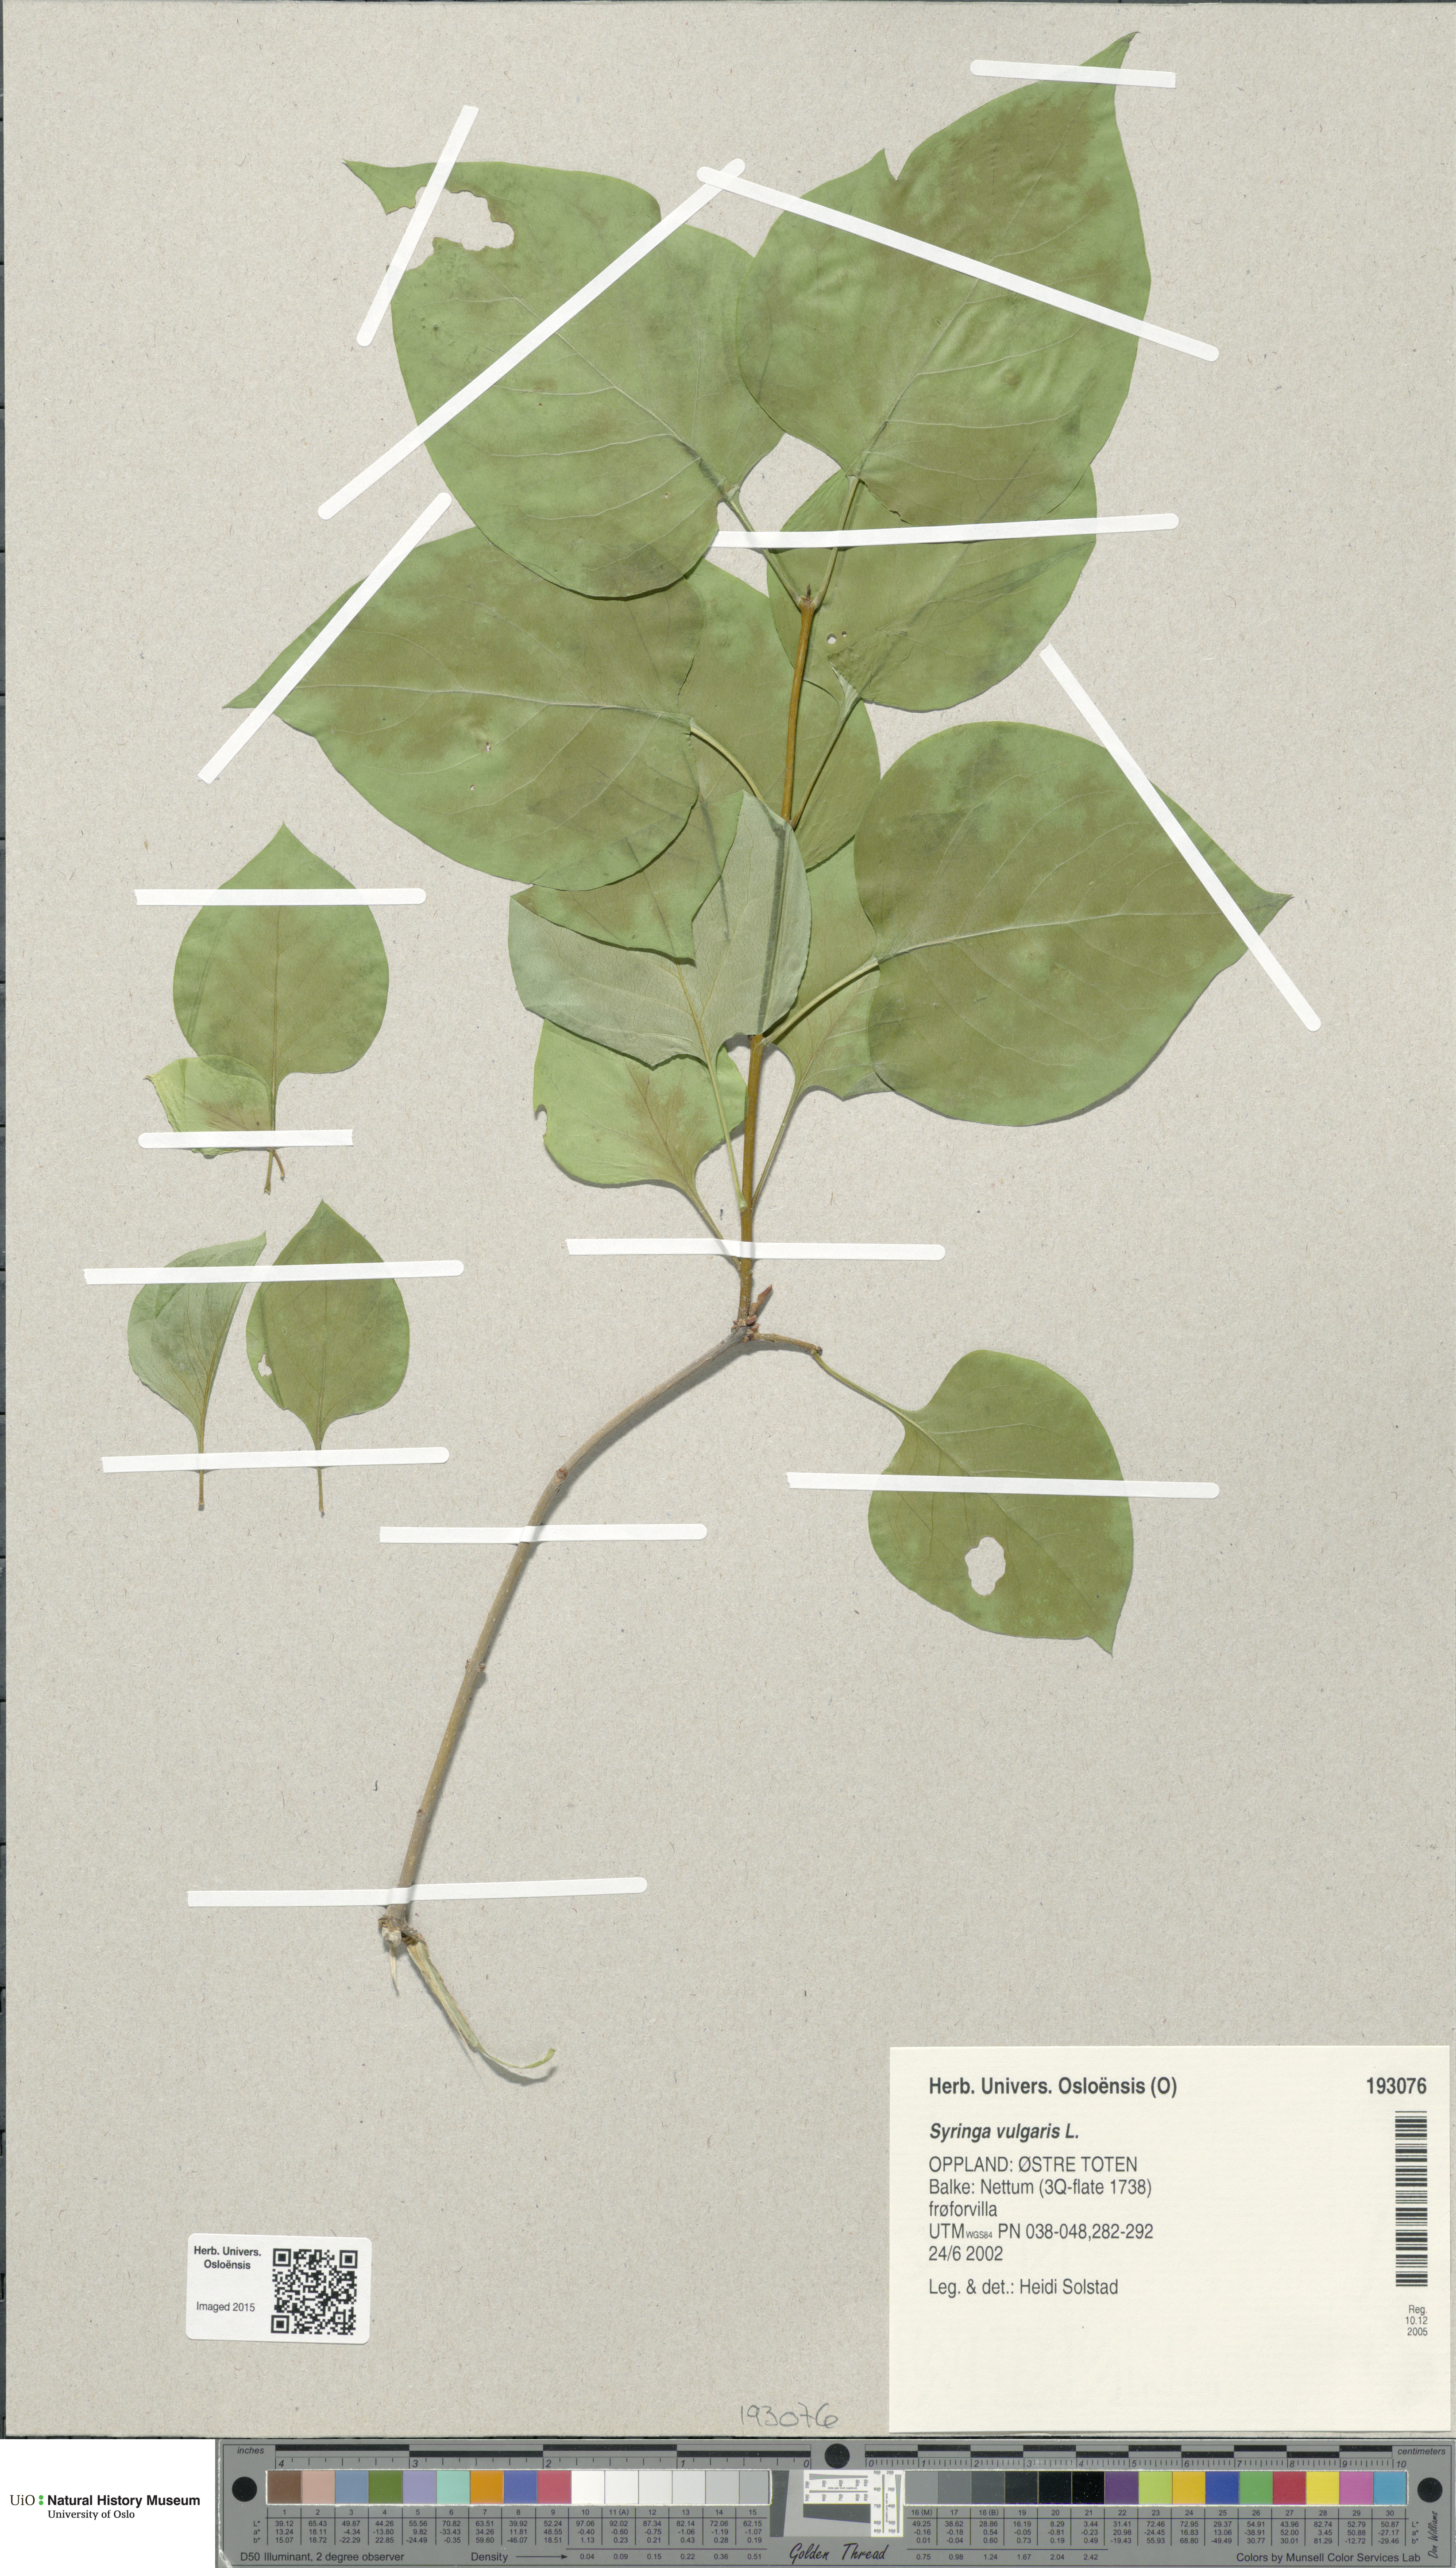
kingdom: Plantae
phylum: Tracheophyta
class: Magnoliopsida
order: Lamiales
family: Oleaceae
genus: Syringa
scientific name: Syringa vulgaris
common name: Common lilac
